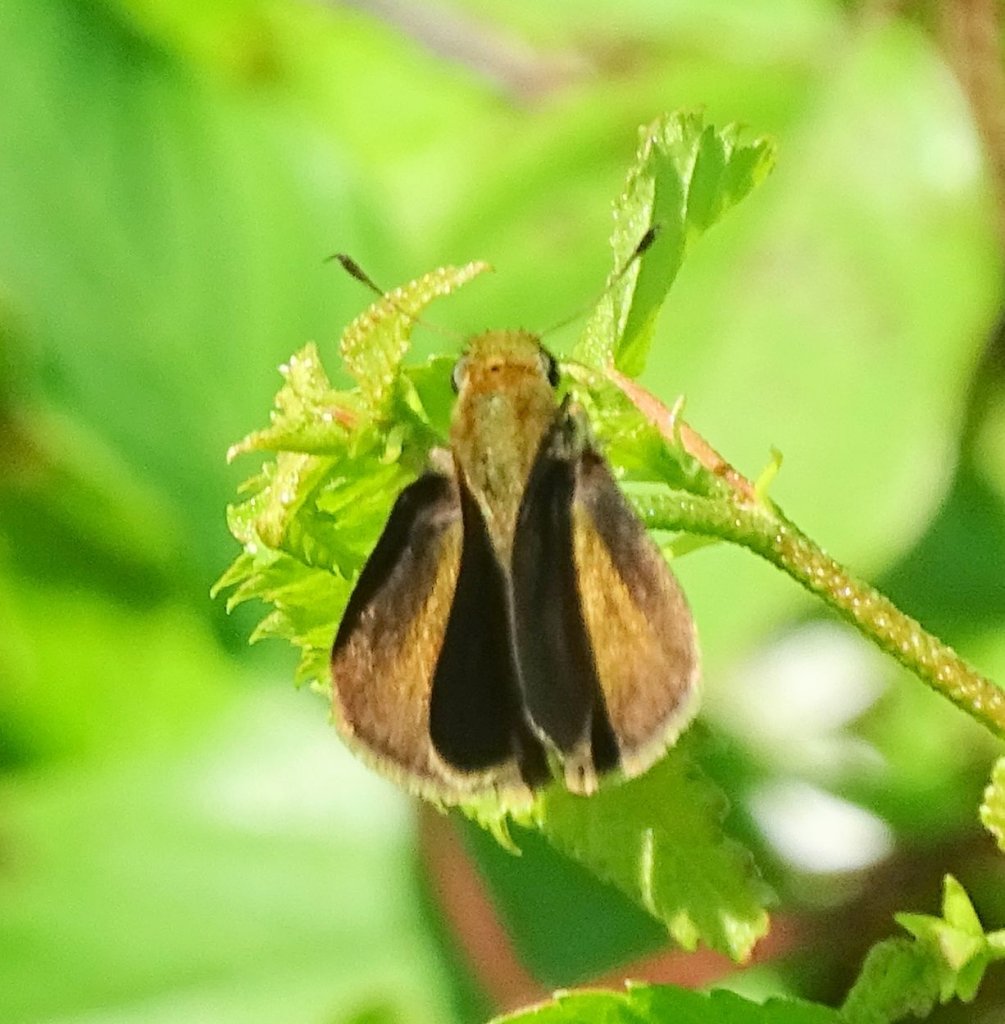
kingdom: Animalia
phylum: Arthropoda
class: Insecta
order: Lepidoptera
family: Hesperiidae
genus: Euphyes
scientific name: Euphyes vestris
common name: Dun Skipper
